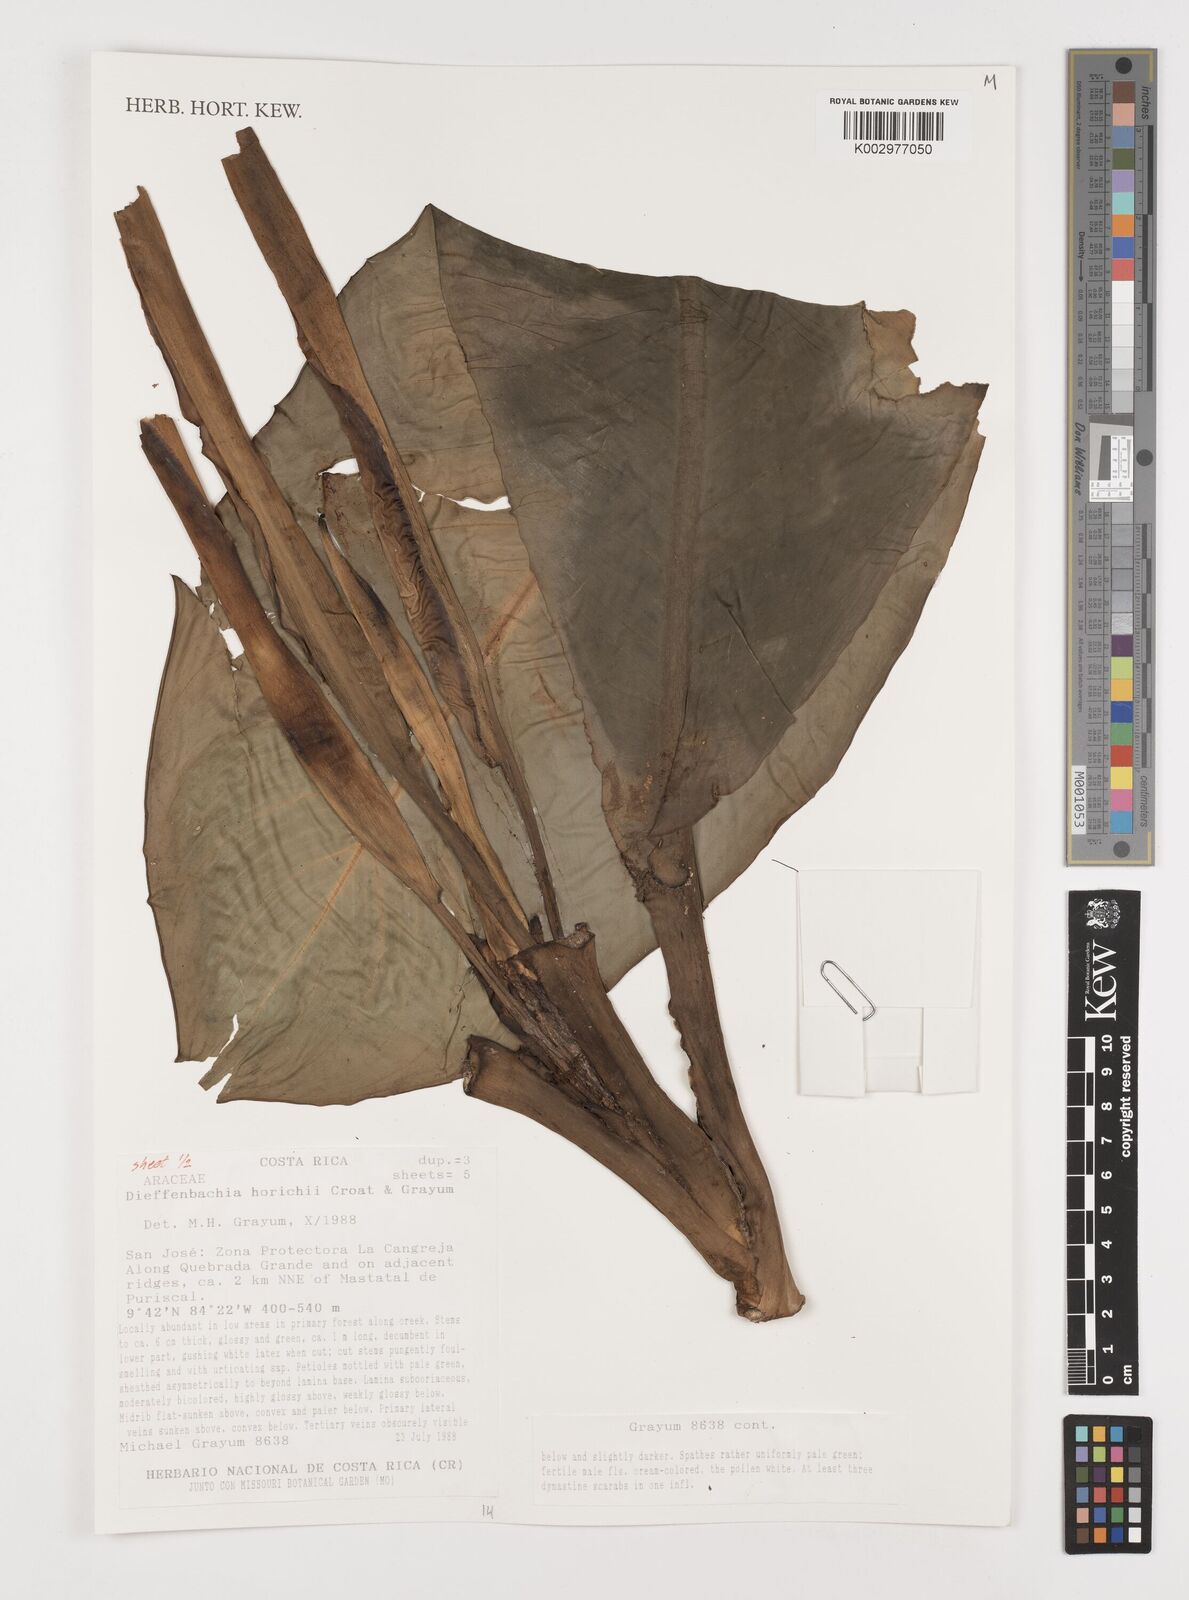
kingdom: Plantae
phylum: Tracheophyta
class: Liliopsida
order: Alismatales
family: Araceae
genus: Dieffenbachia
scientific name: Dieffenbachia horichii
